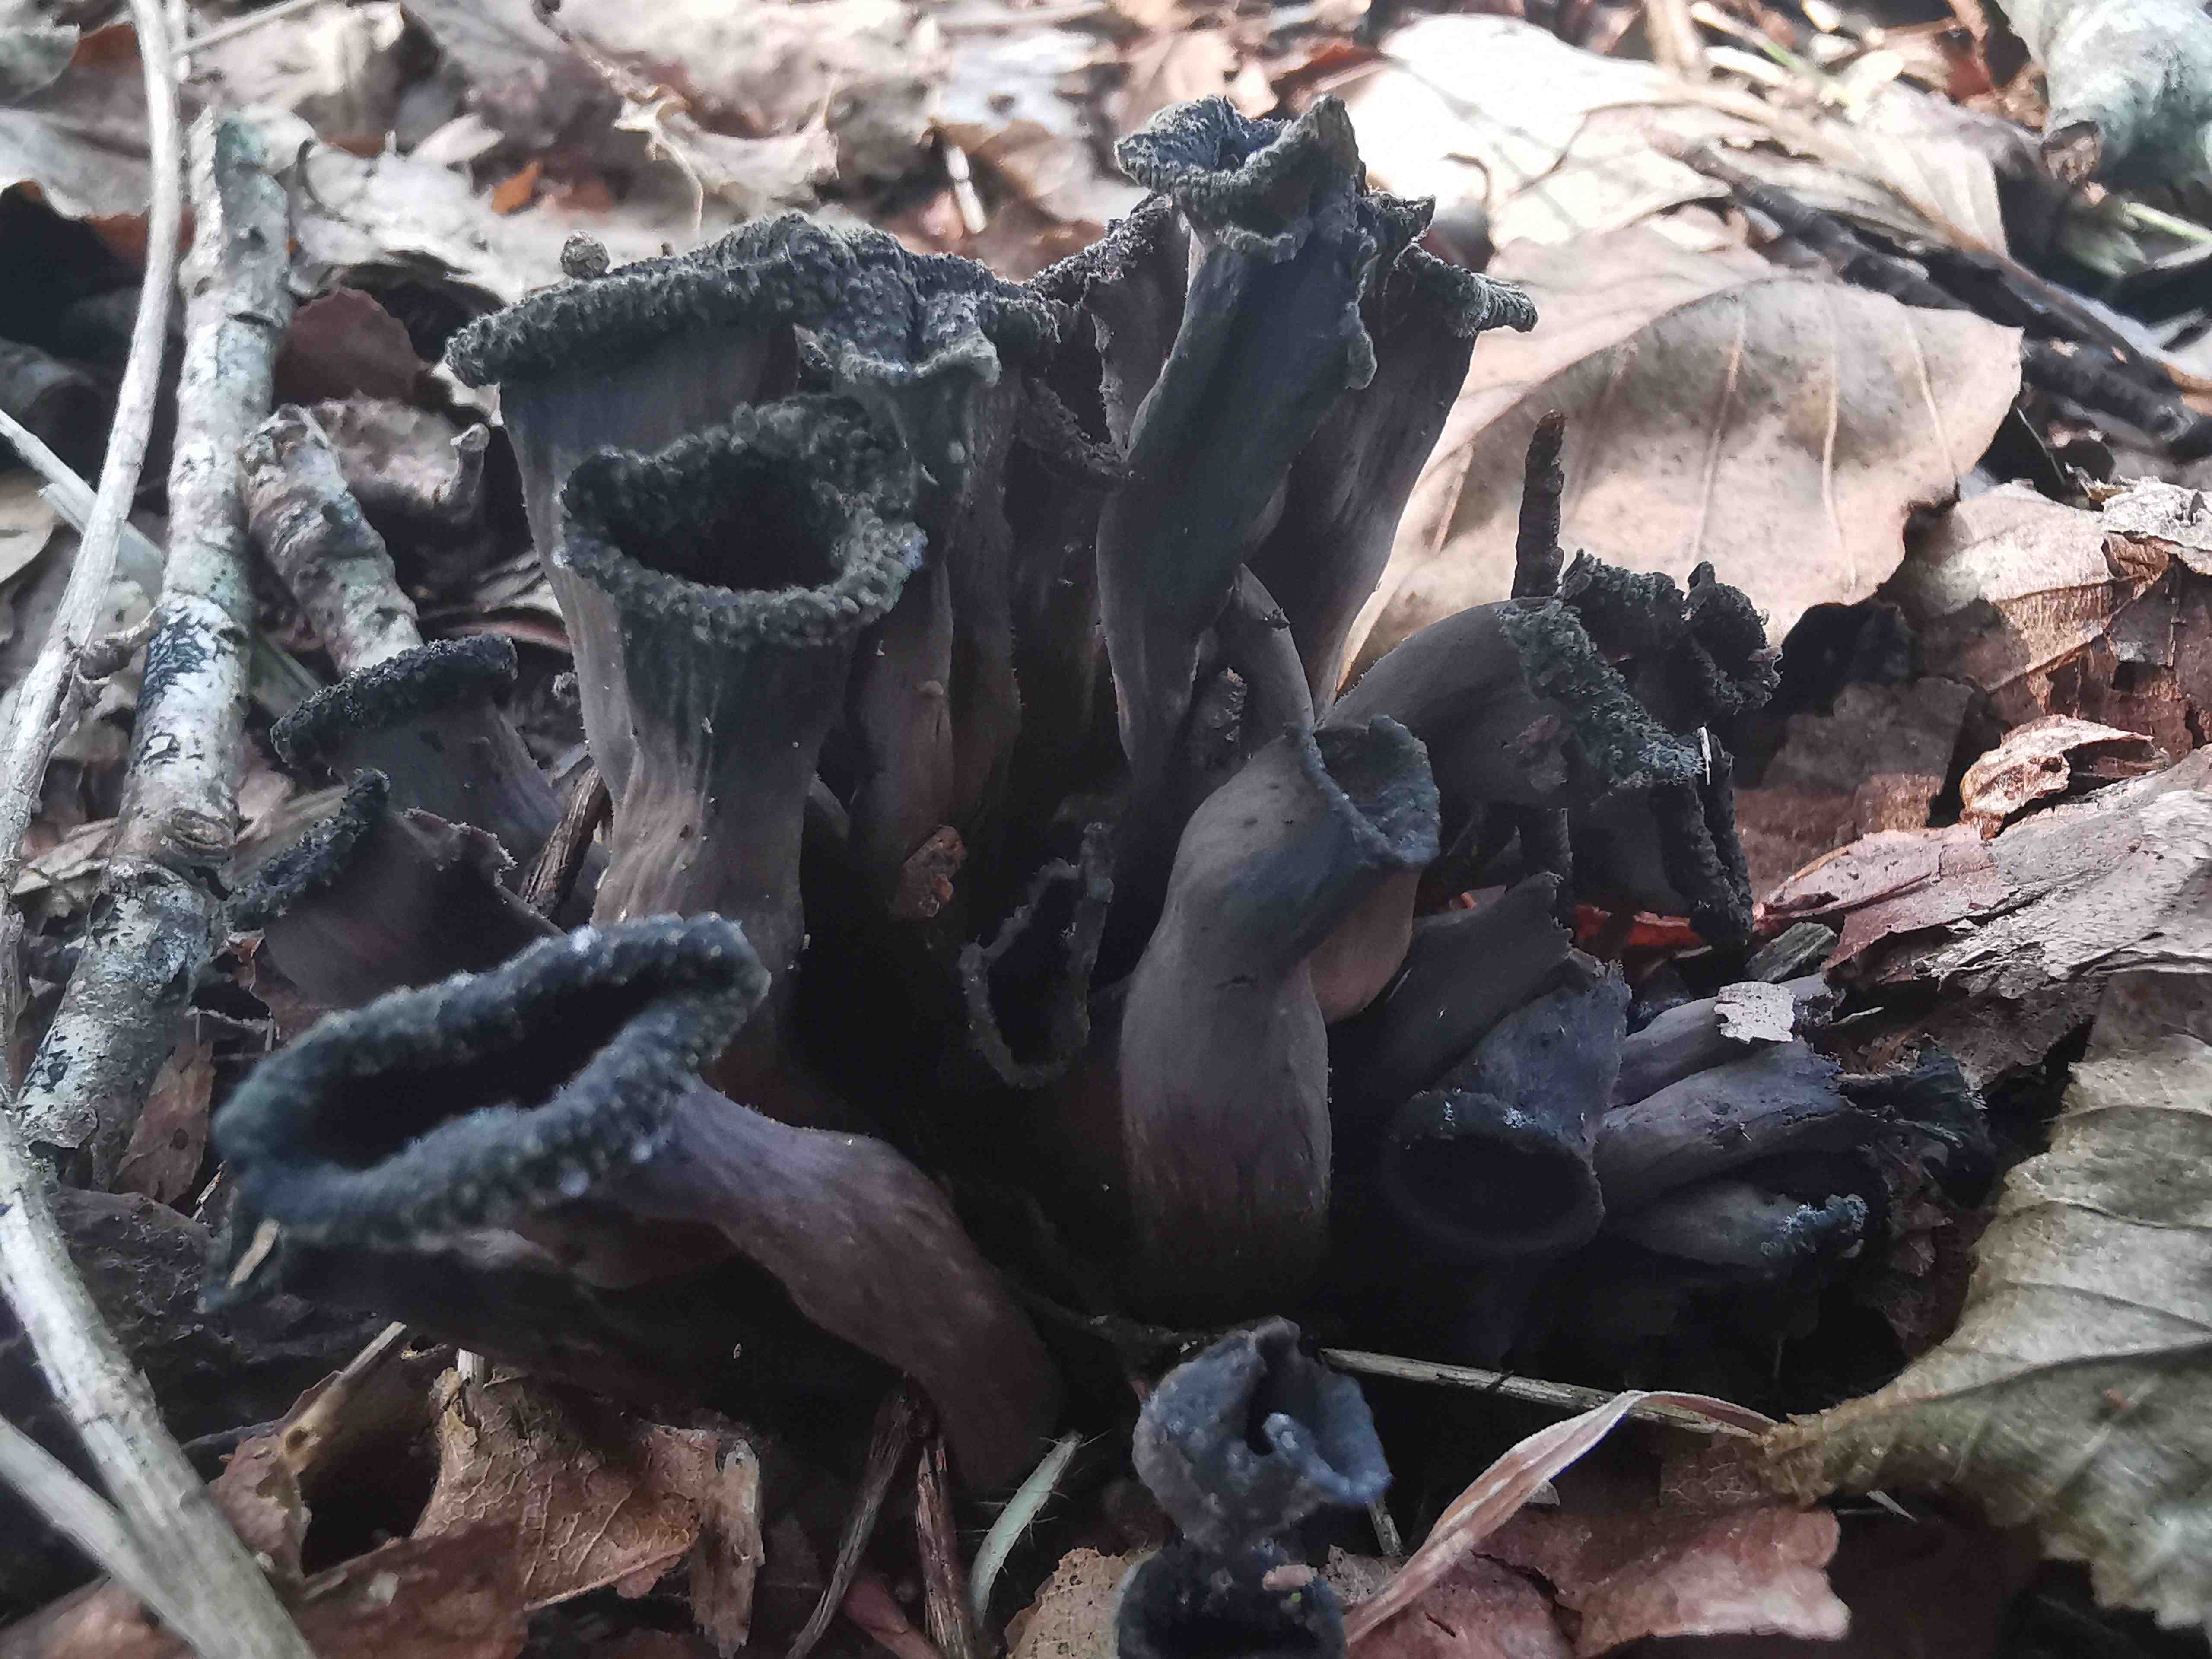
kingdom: Fungi
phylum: Basidiomycota
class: Agaricomycetes
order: Cantharellales
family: Hydnaceae
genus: Craterellus
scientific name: Craterellus cornucopioides
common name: trompetsvamp
